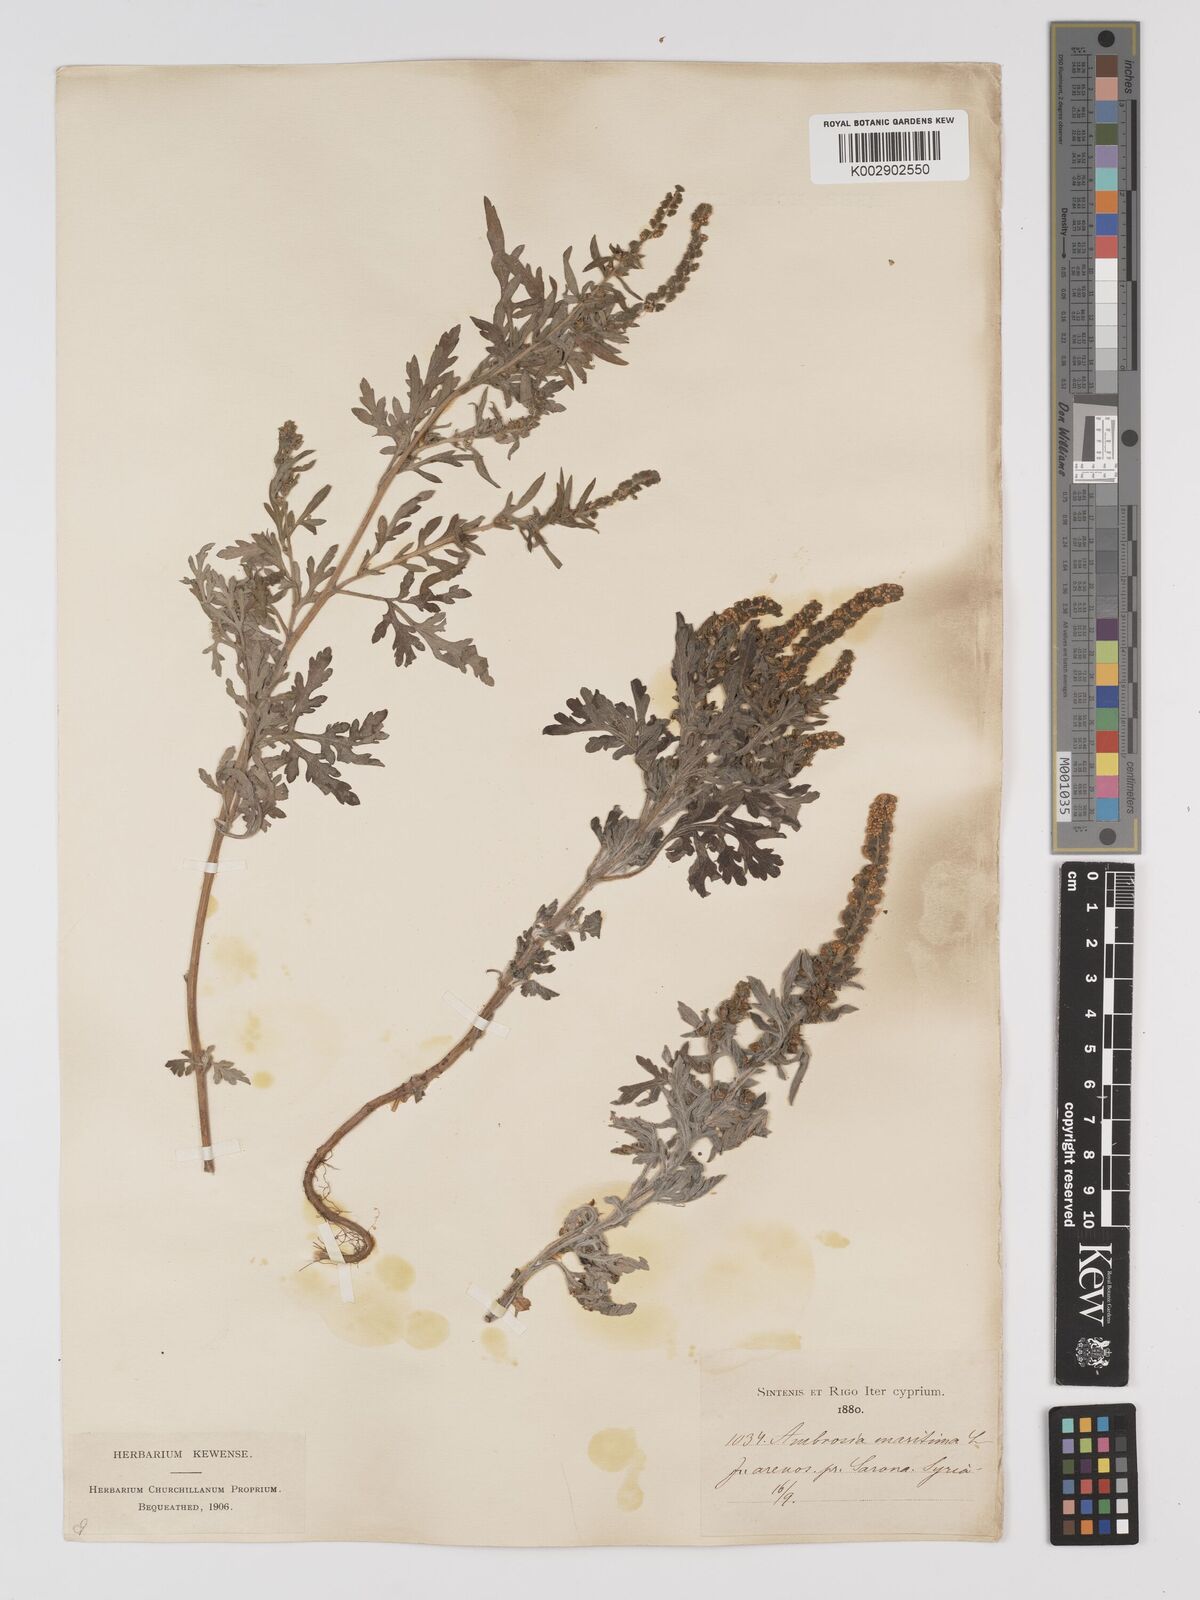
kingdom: Plantae
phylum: Tracheophyta
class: Magnoliopsida
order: Asterales
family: Asteraceae
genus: Ambrosia
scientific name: Ambrosia maritima
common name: Sea ambrosia
